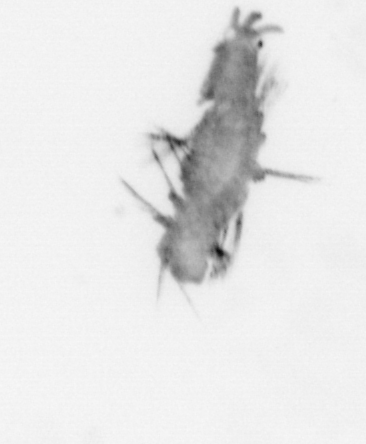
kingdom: Animalia
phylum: Annelida
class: Polychaeta
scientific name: Polychaeta
